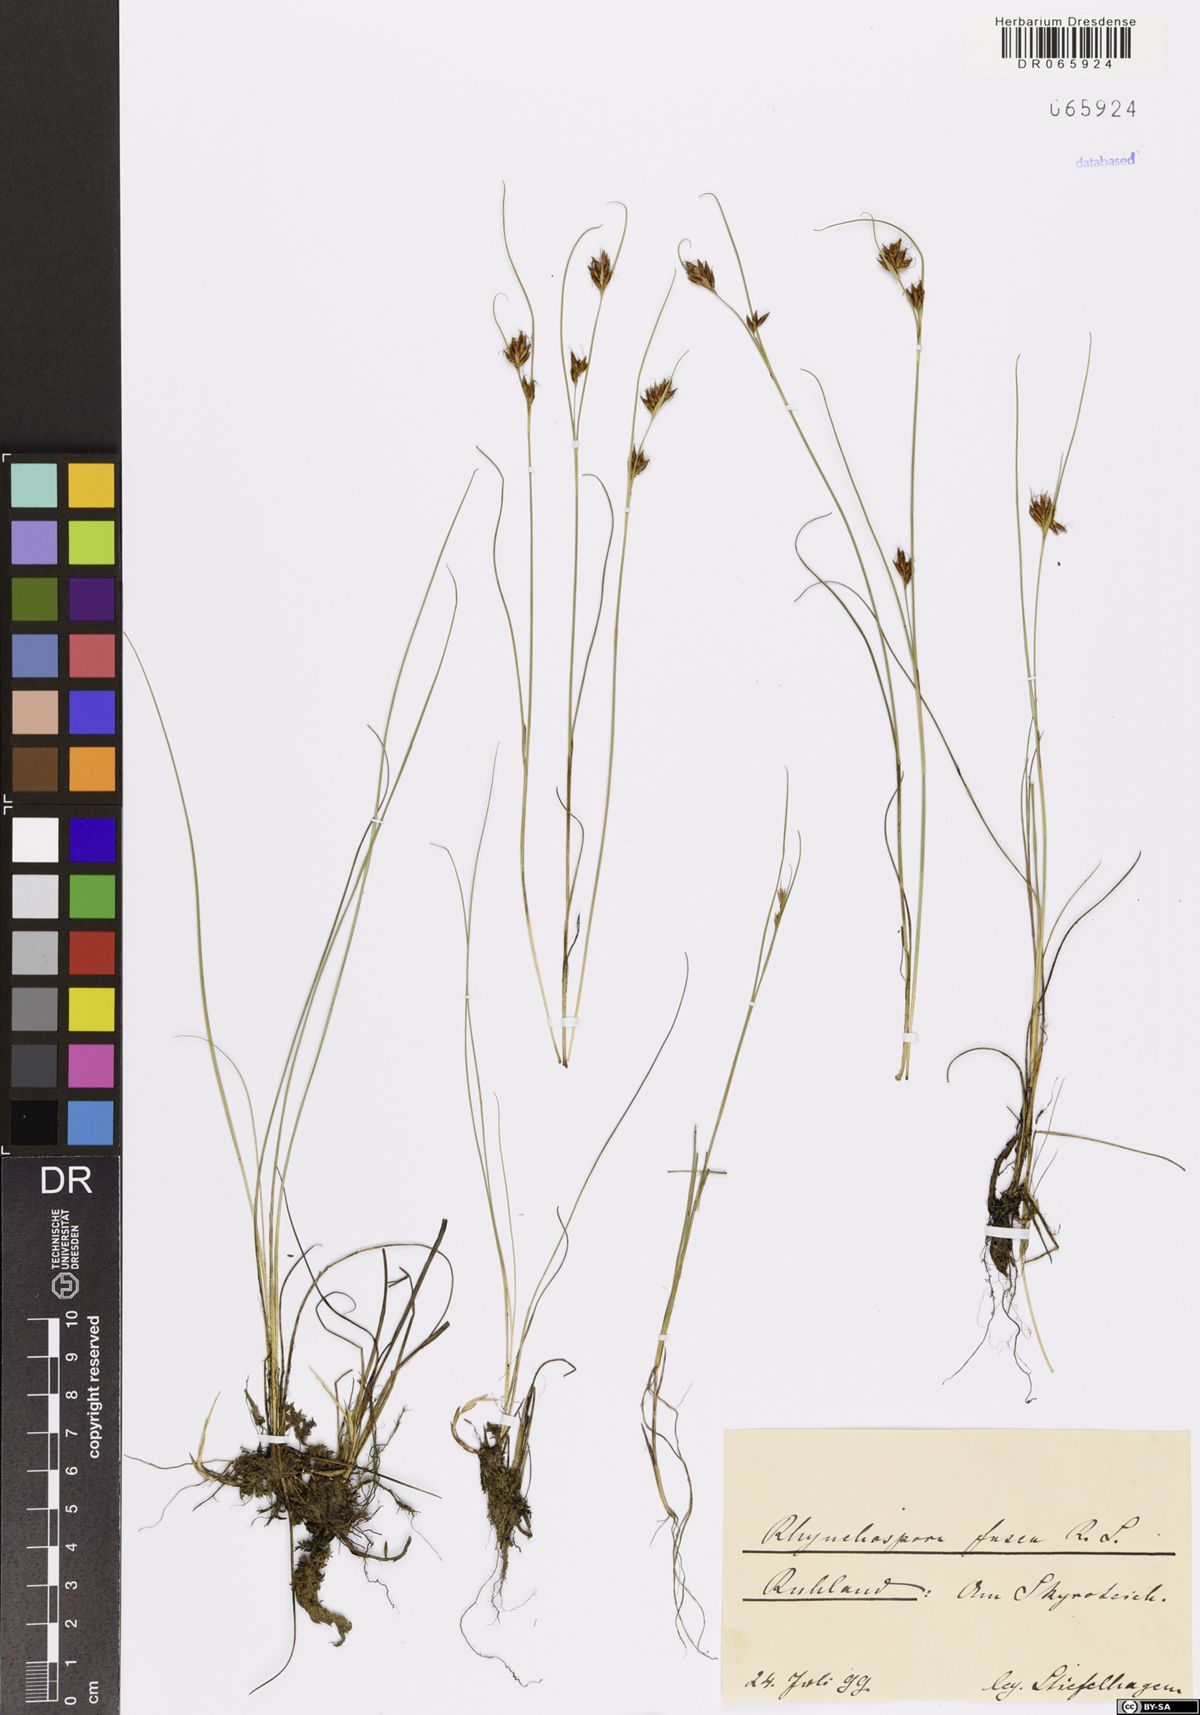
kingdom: Plantae
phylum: Tracheophyta
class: Liliopsida
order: Poales
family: Cyperaceae
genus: Rhynchospora
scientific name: Rhynchospora fusca
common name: Brown beak-sedge
